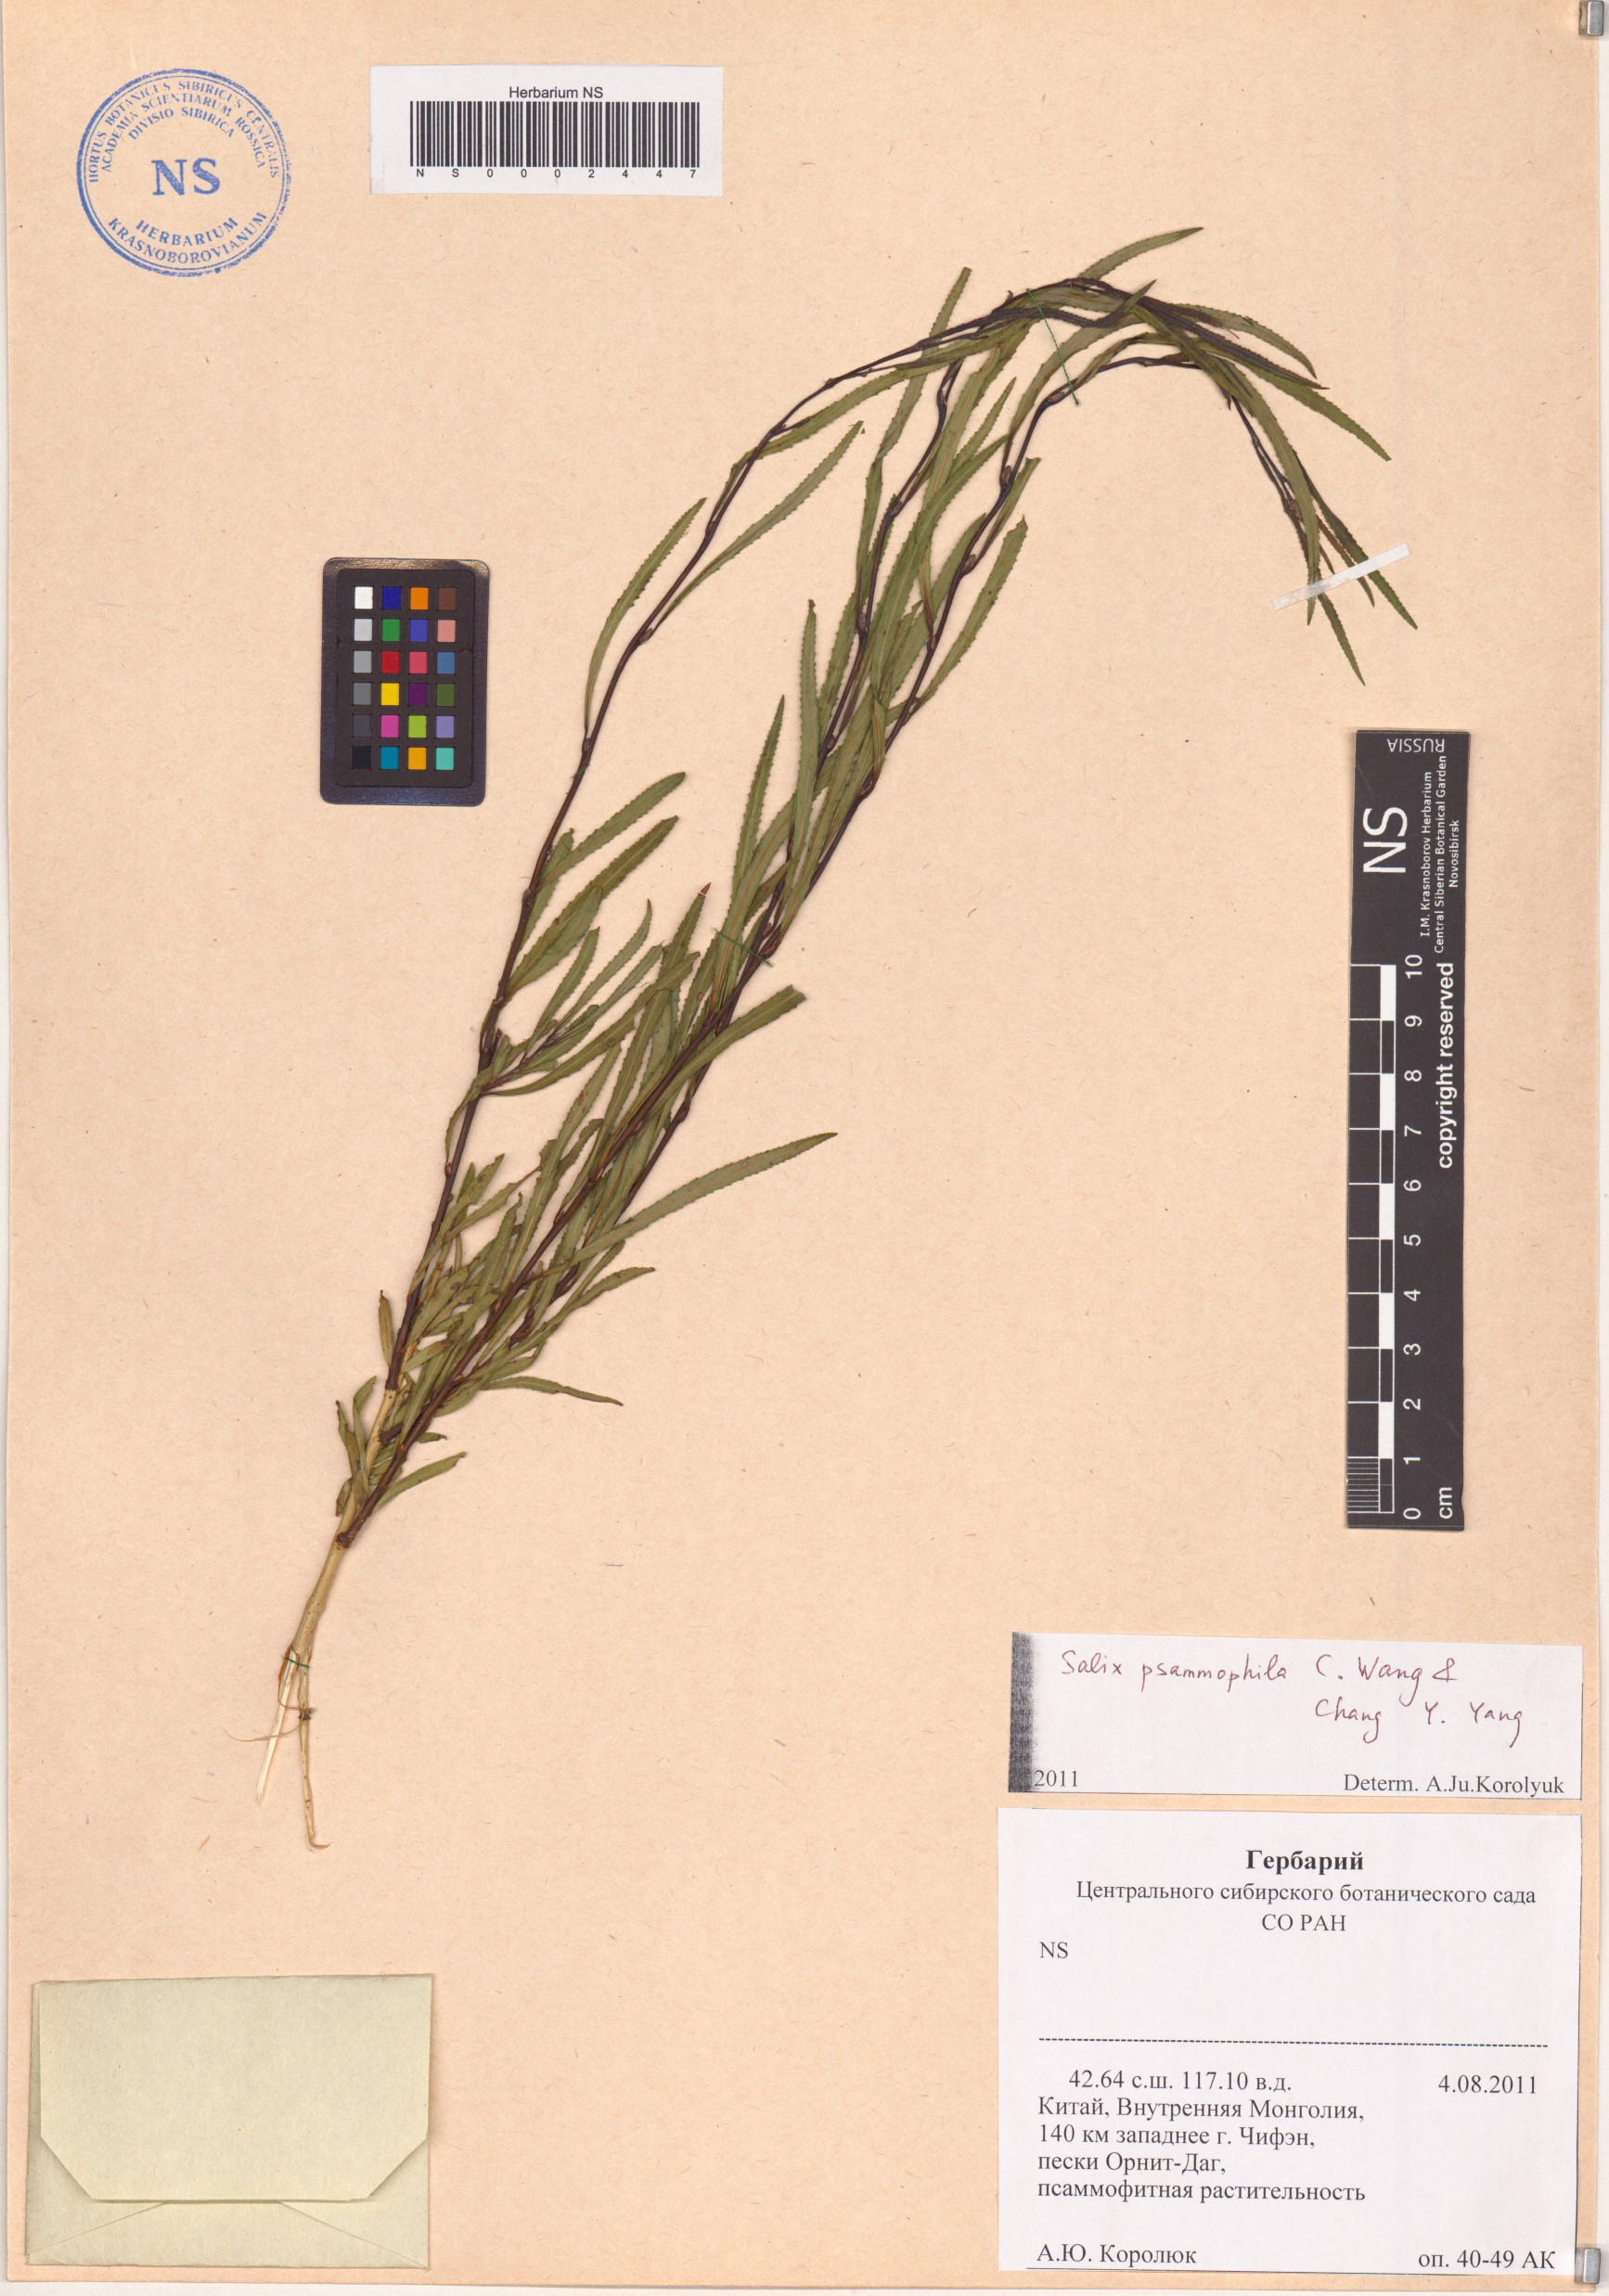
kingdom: Plantae
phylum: Tracheophyta
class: Magnoliopsida
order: Malpighiales
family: Salicaceae
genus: Salix
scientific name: Salix psammophila
